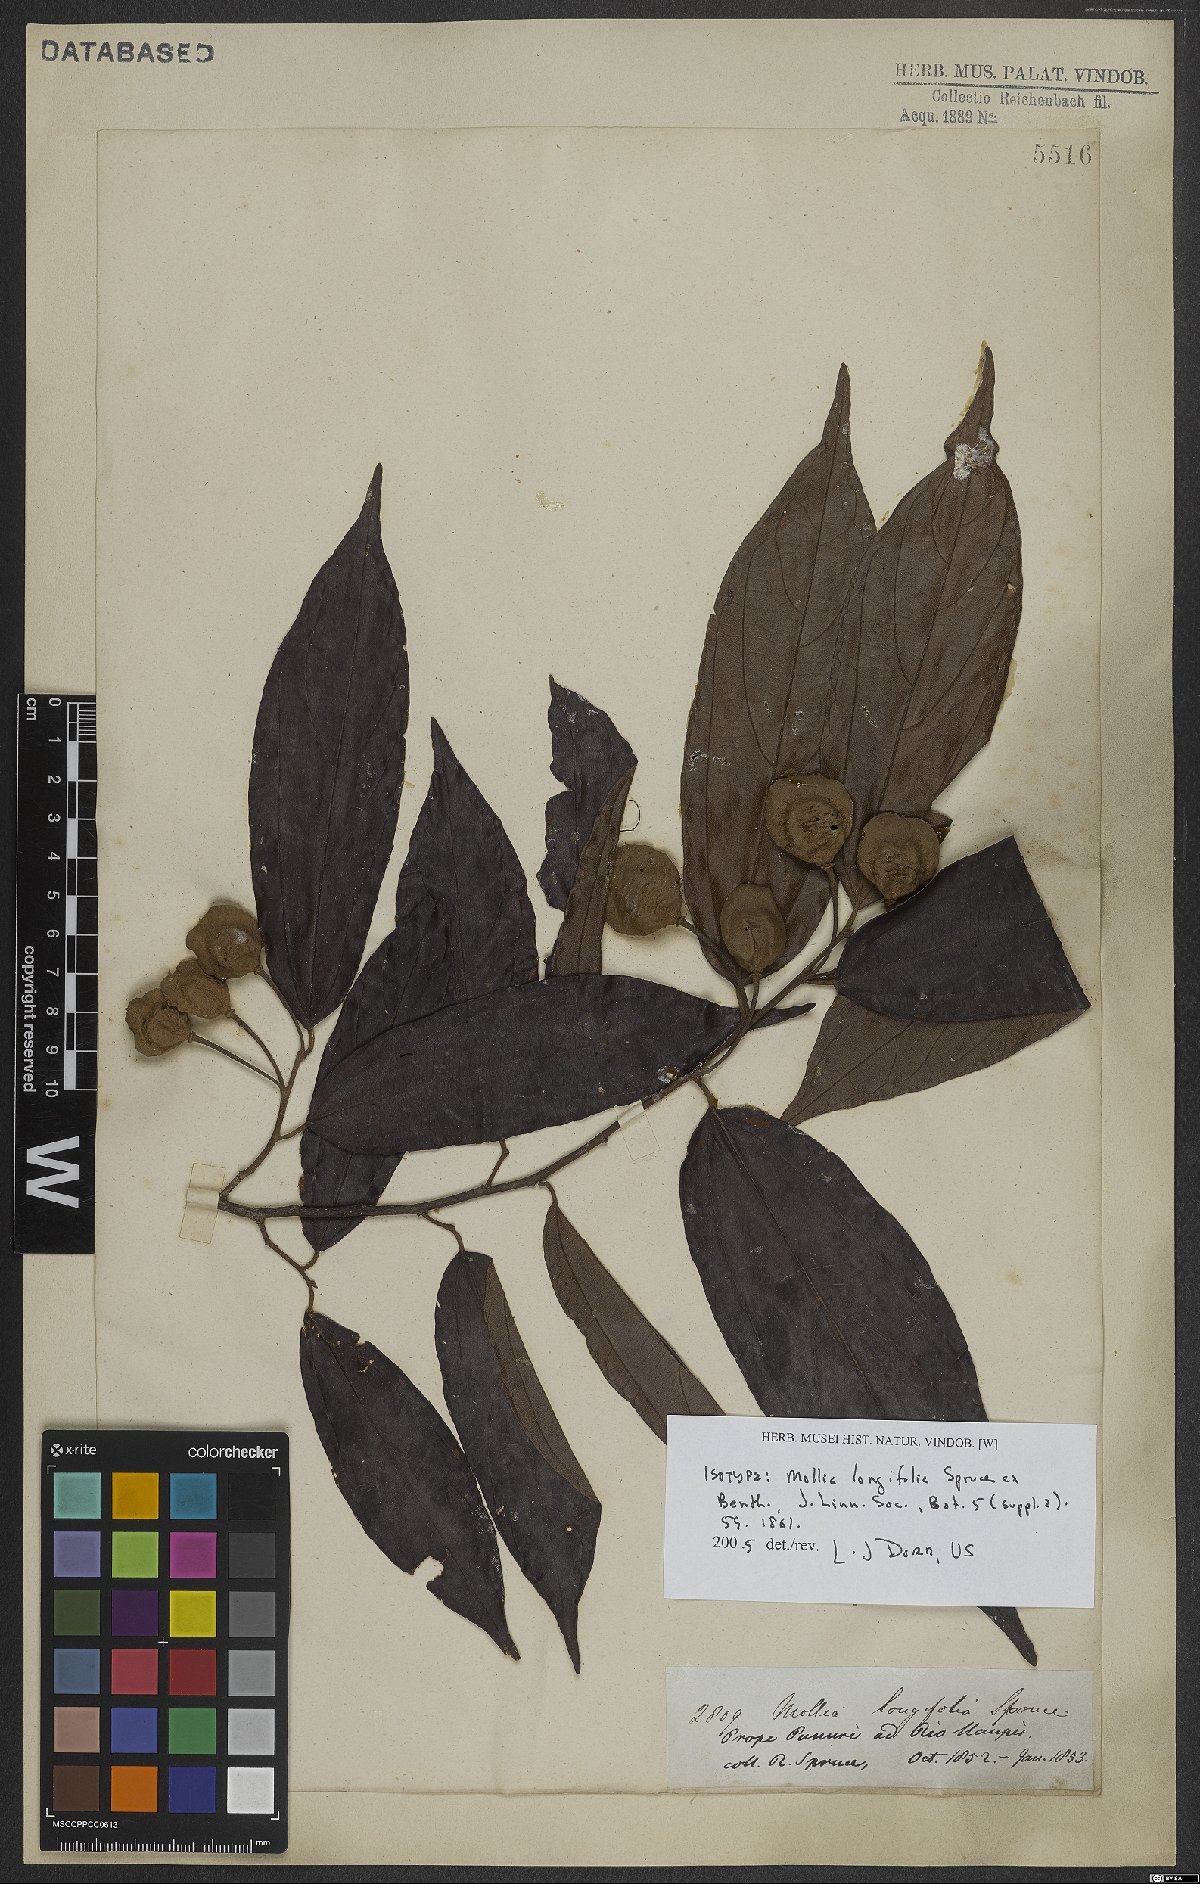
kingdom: Plantae
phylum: Tracheophyta
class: Magnoliopsida
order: Malvales
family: Malvaceae
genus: Mollia
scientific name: Mollia longifolia
